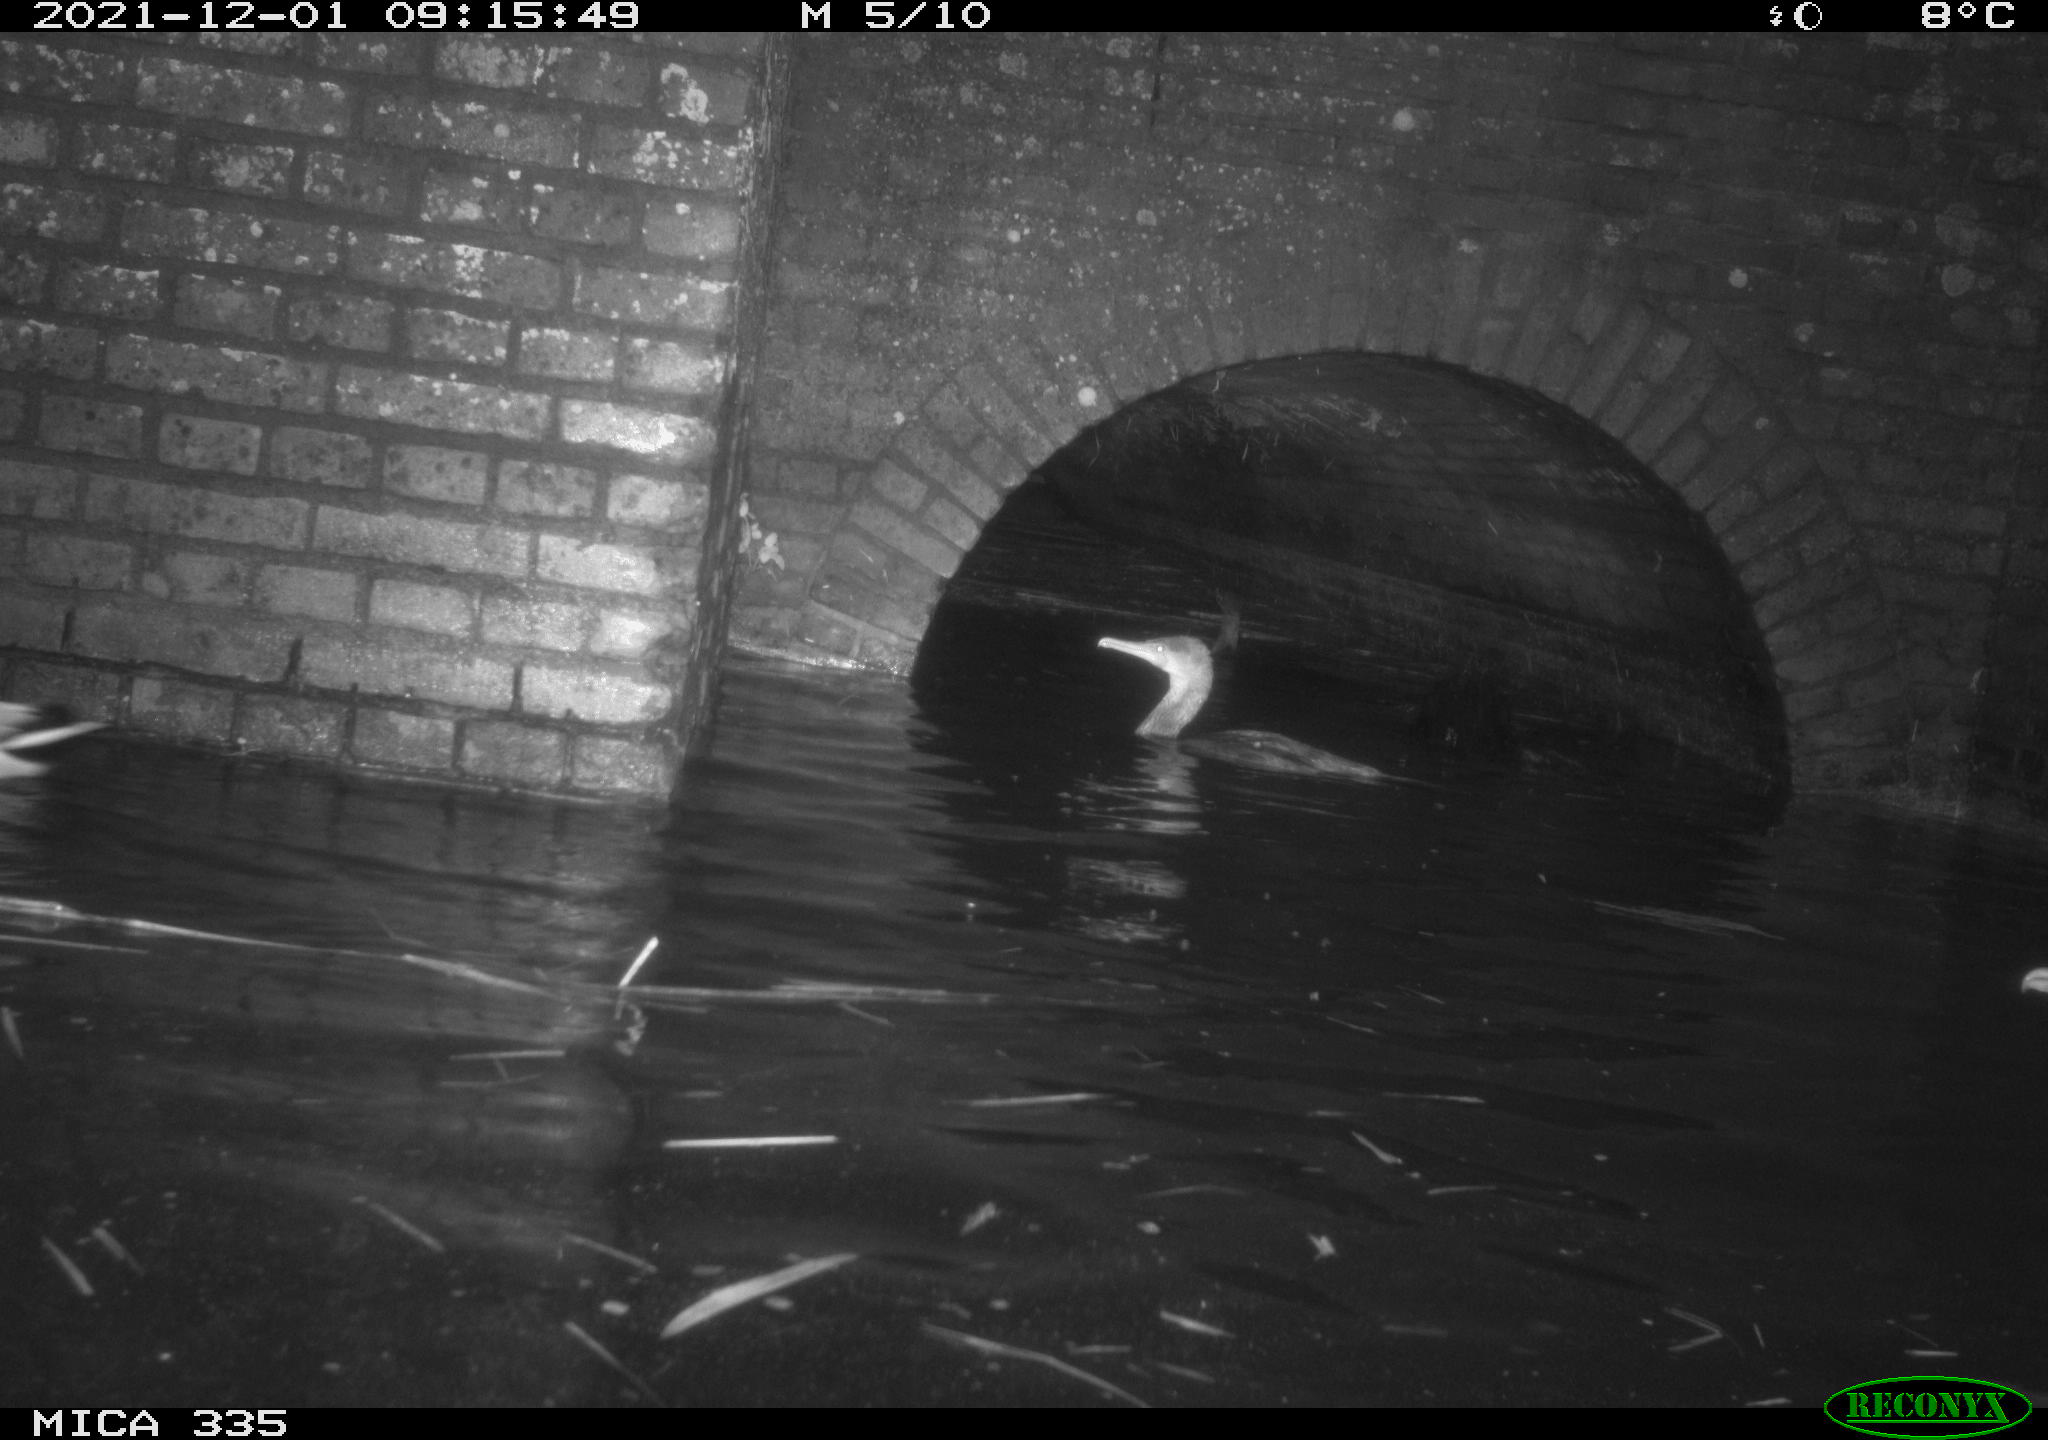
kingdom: Animalia
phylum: Chordata
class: Aves
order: Anseriformes
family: Anatidae
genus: Anas
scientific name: Anas platyrhynchos
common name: Mallard
